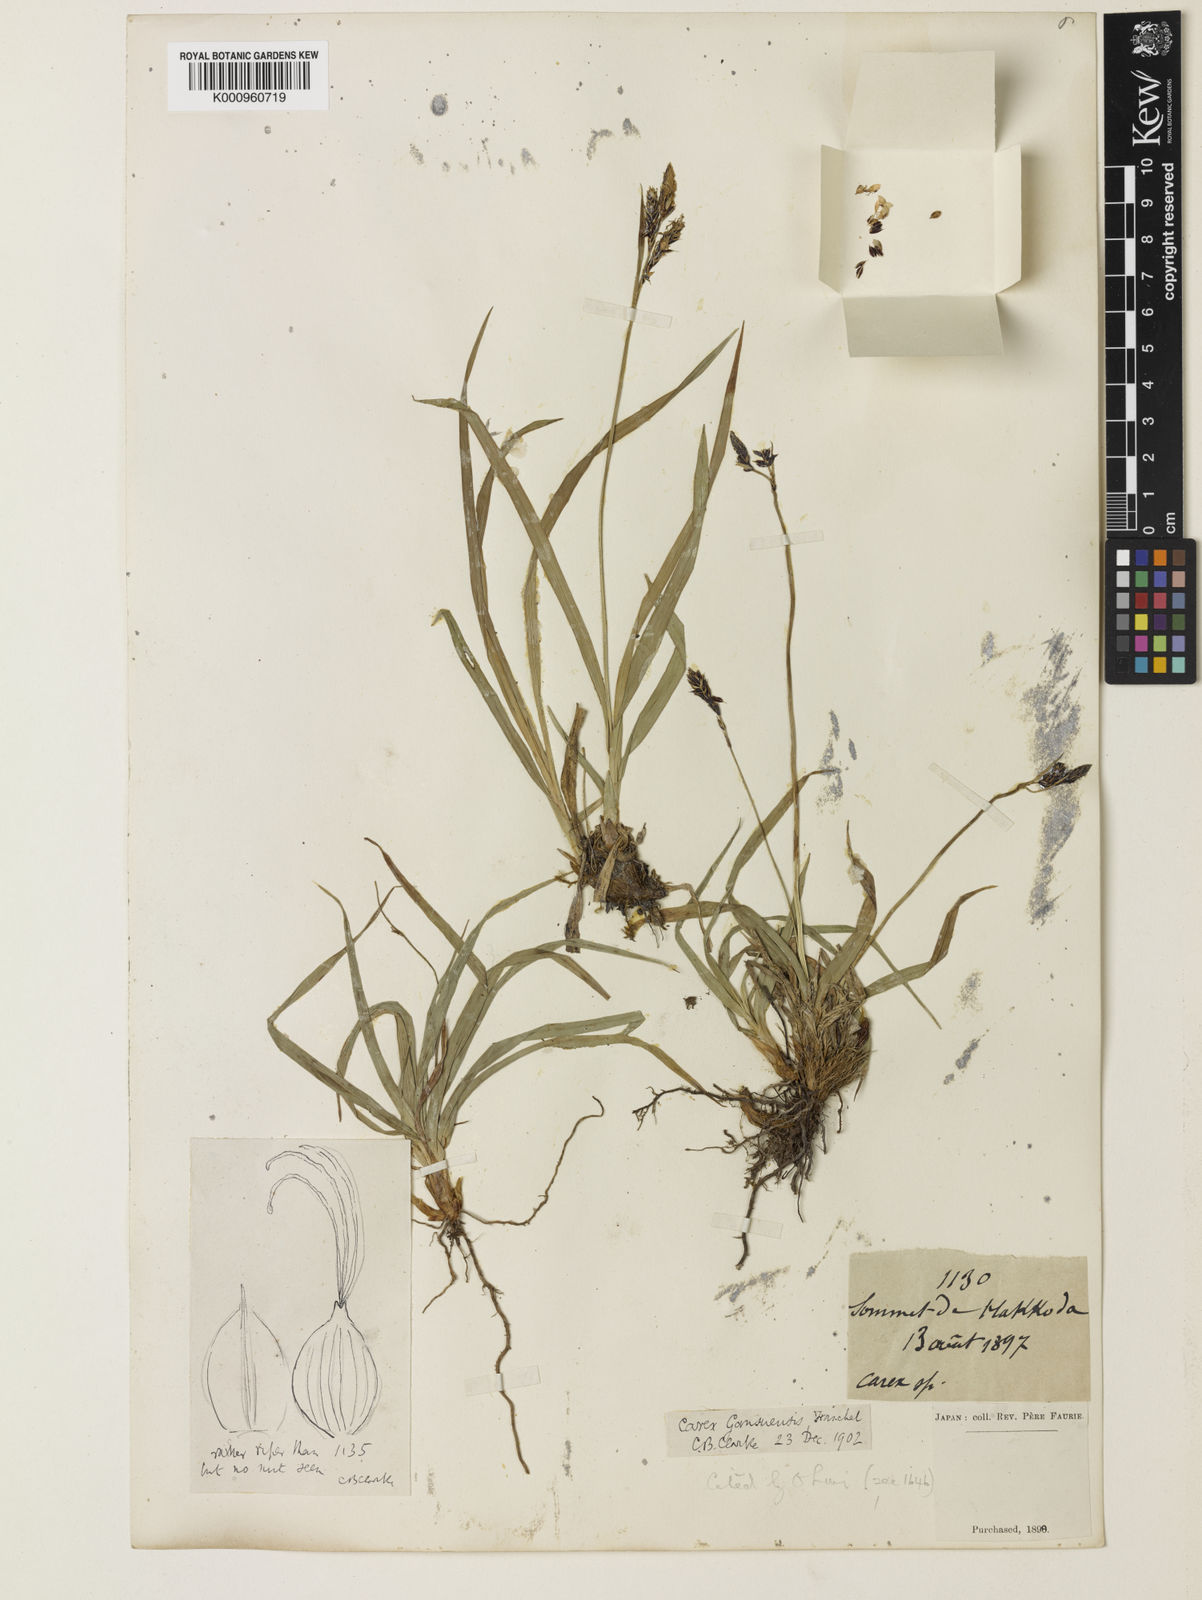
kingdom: Plantae
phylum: Tracheophyta
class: Liliopsida
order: Poales
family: Cyperaceae
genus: Carex
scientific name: Carex macrochaeta
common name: Alaska large awn sedge
